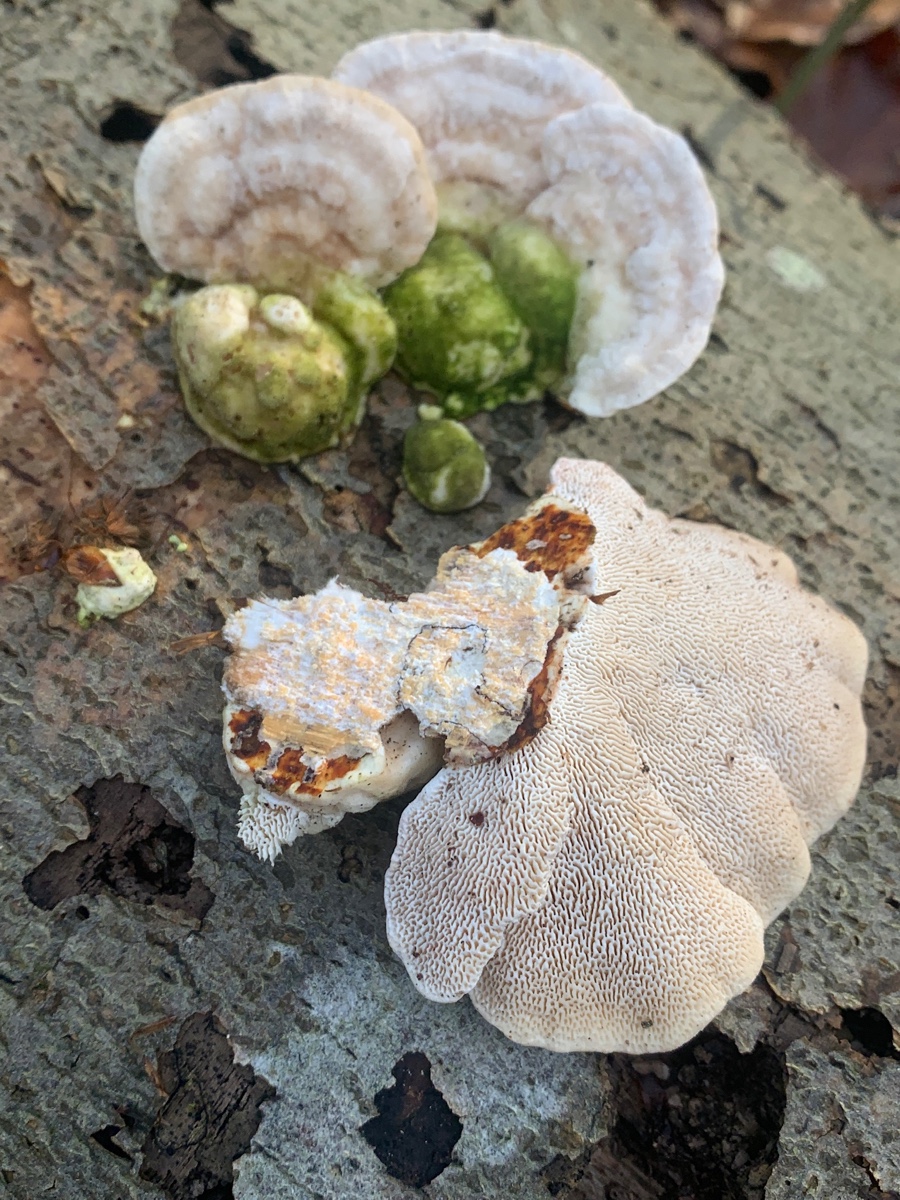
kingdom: Fungi
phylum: Basidiomycota
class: Agaricomycetes
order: Polyporales
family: Polyporaceae
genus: Trametes
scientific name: Trametes gibbosa
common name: puklet læderporesvamp
